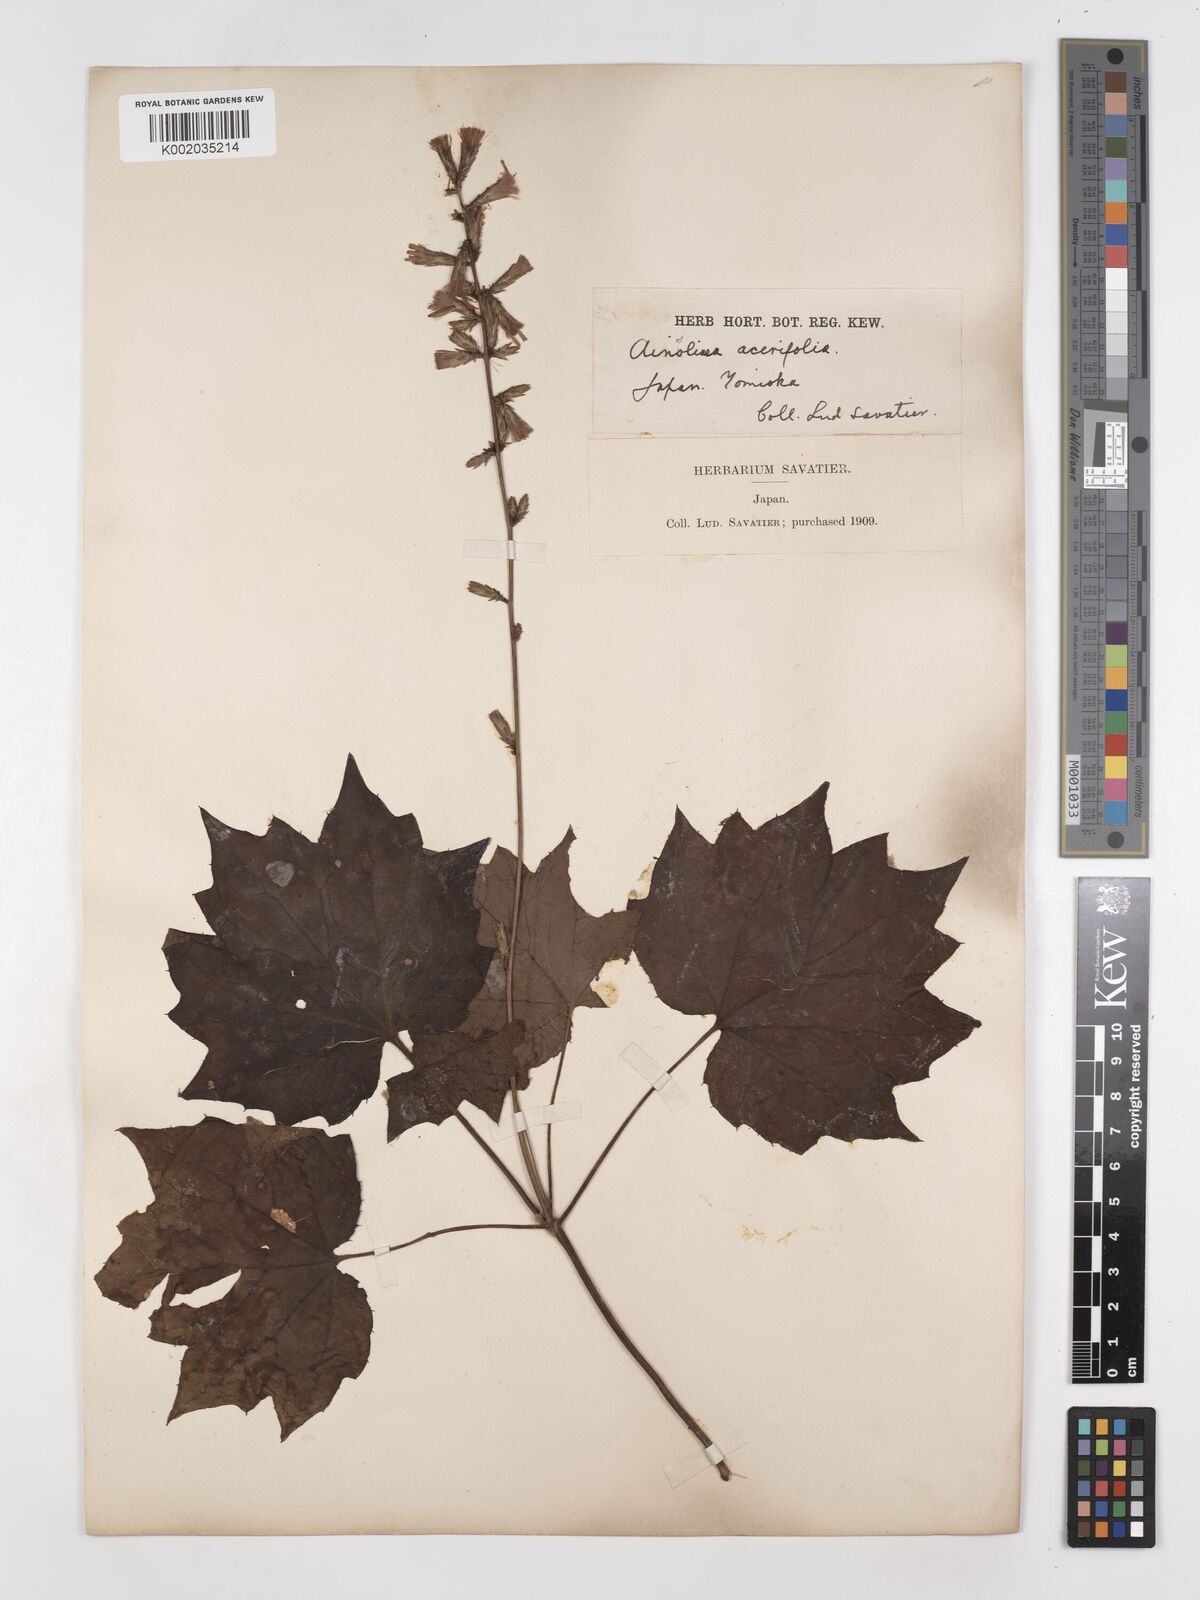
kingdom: Plantae
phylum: Tracheophyta
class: Magnoliopsida
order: Asterales
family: Asteraceae
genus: Ainsliaea
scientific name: Ainsliaea acerifolia
